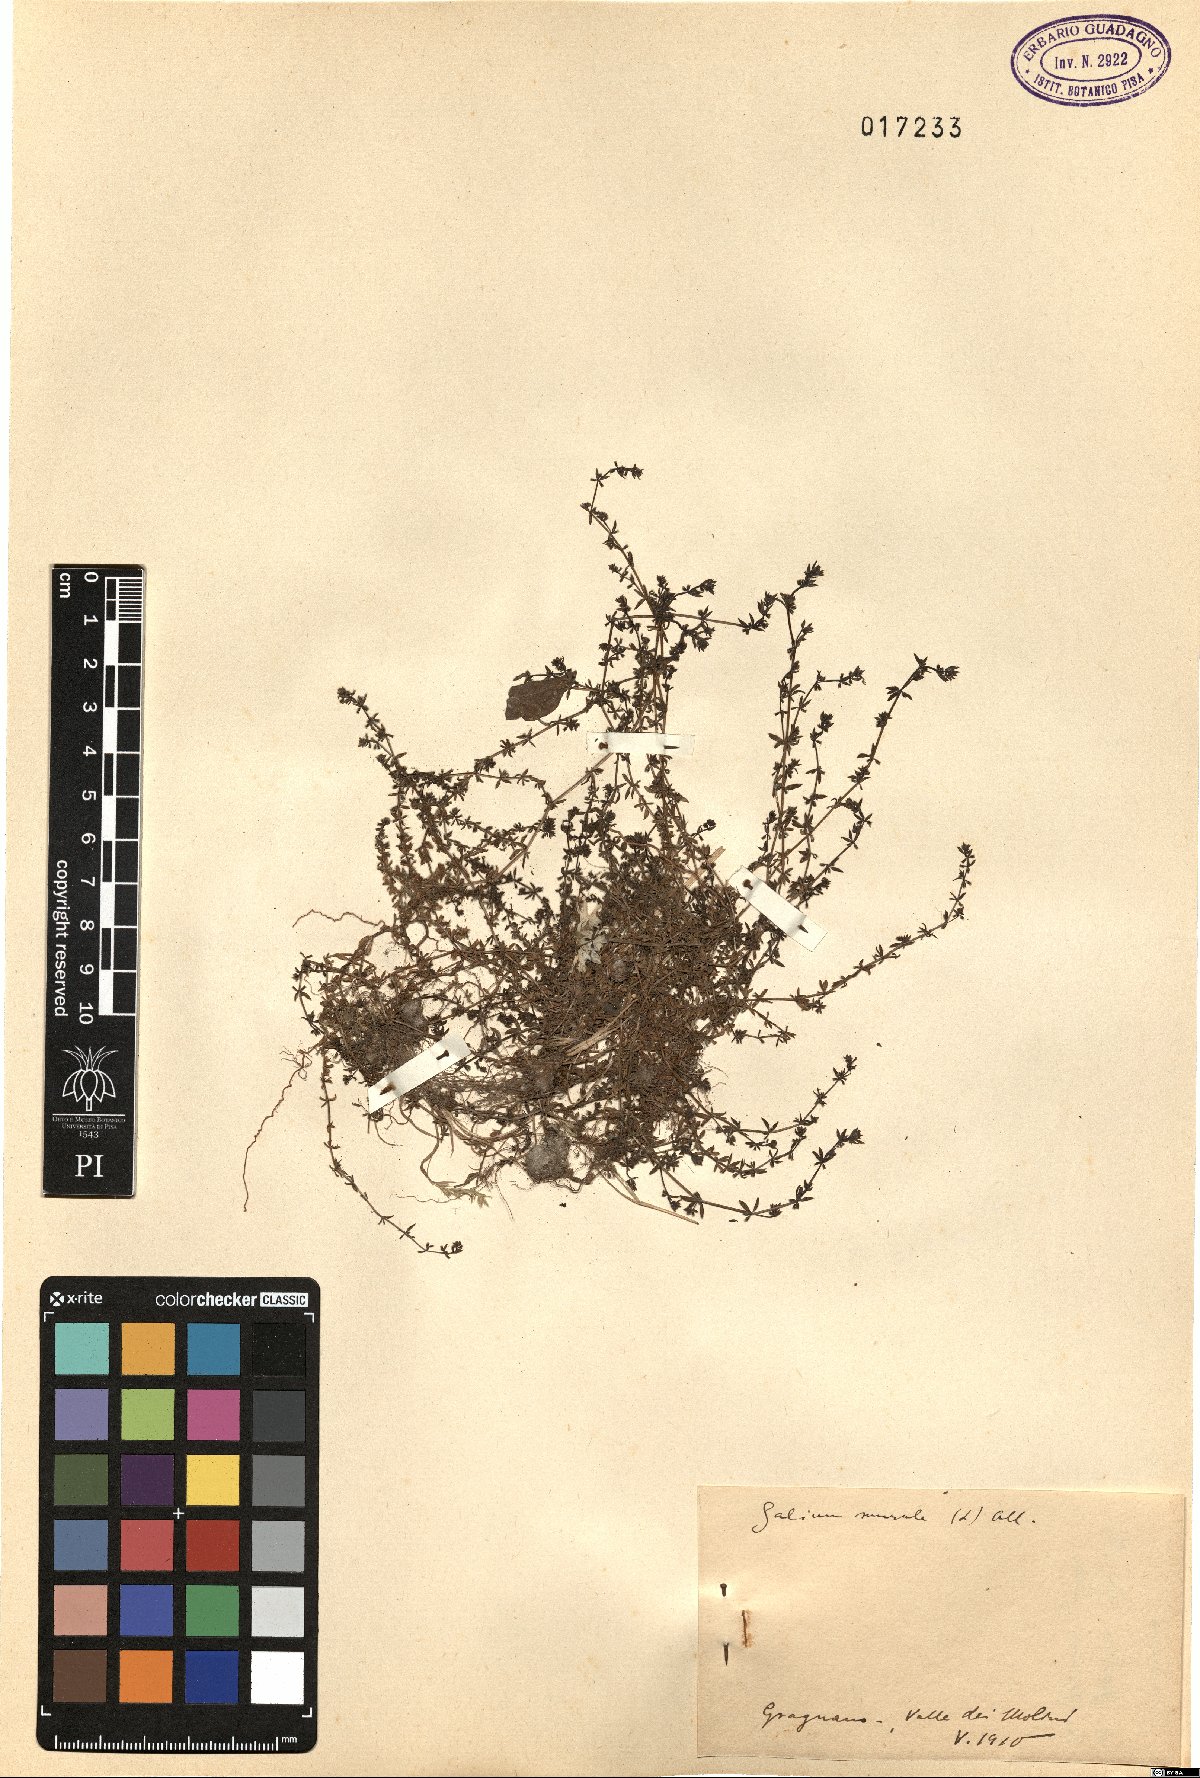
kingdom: Plantae
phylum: Tracheophyta
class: Magnoliopsida
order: Gentianales
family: Rubiaceae
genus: Galium
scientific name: Galium murale
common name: Yellow wall bedstraw
